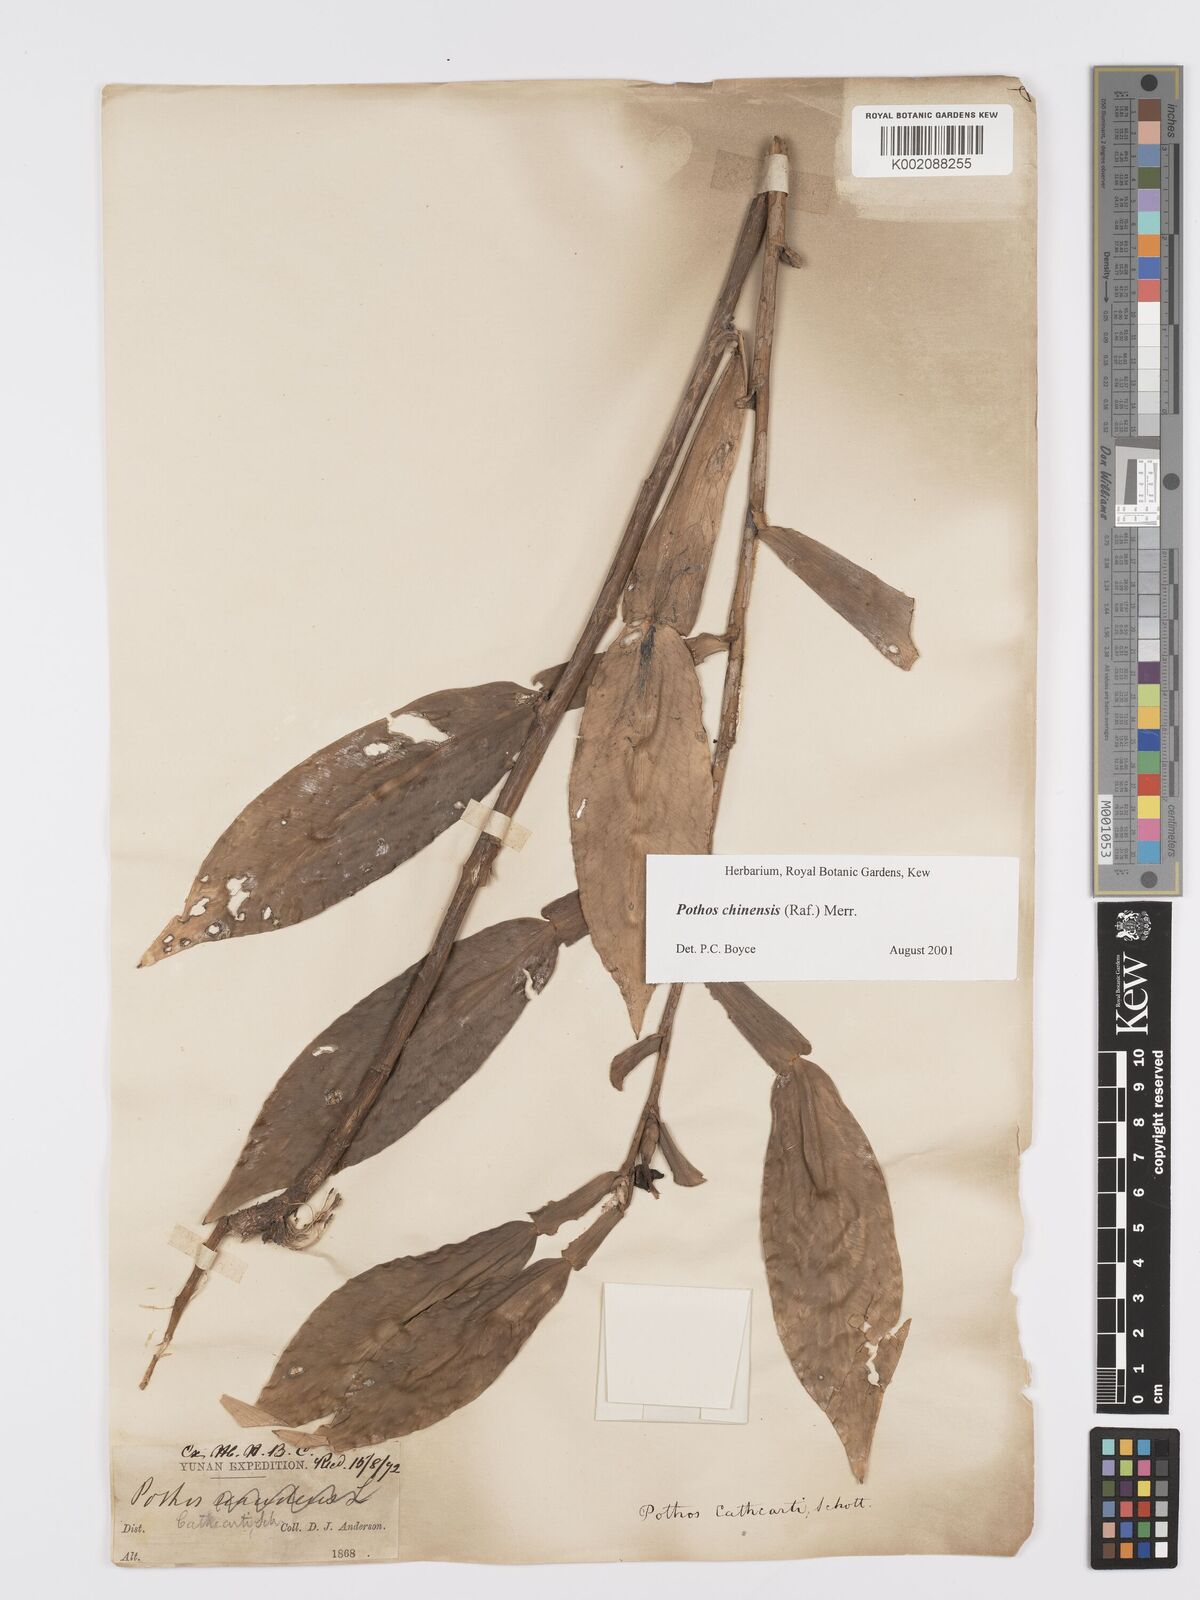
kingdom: Plantae
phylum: Tracheophyta
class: Liliopsida
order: Alismatales
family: Araceae
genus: Pothos
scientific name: Pothos chinensis
